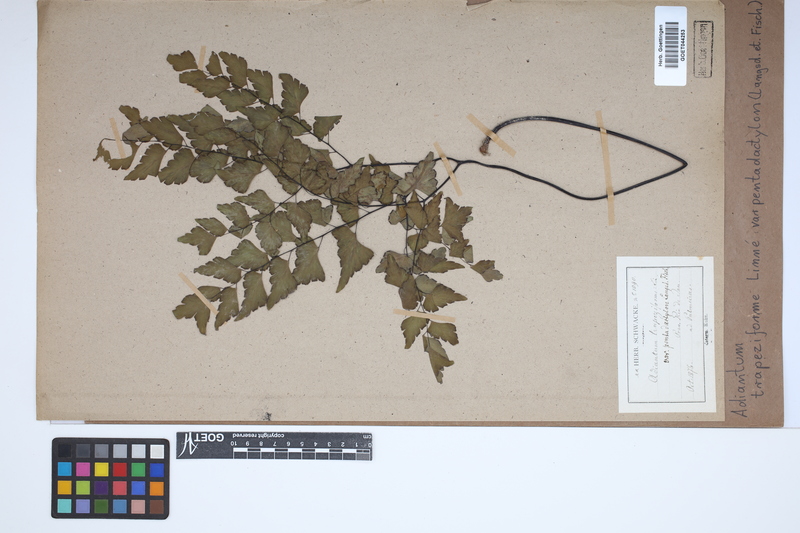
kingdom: Plantae
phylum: Tracheophyta
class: Polypodiopsida
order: Polypodiales
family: Pteridaceae
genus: Adiantum
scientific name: Adiantum pentadactylon
